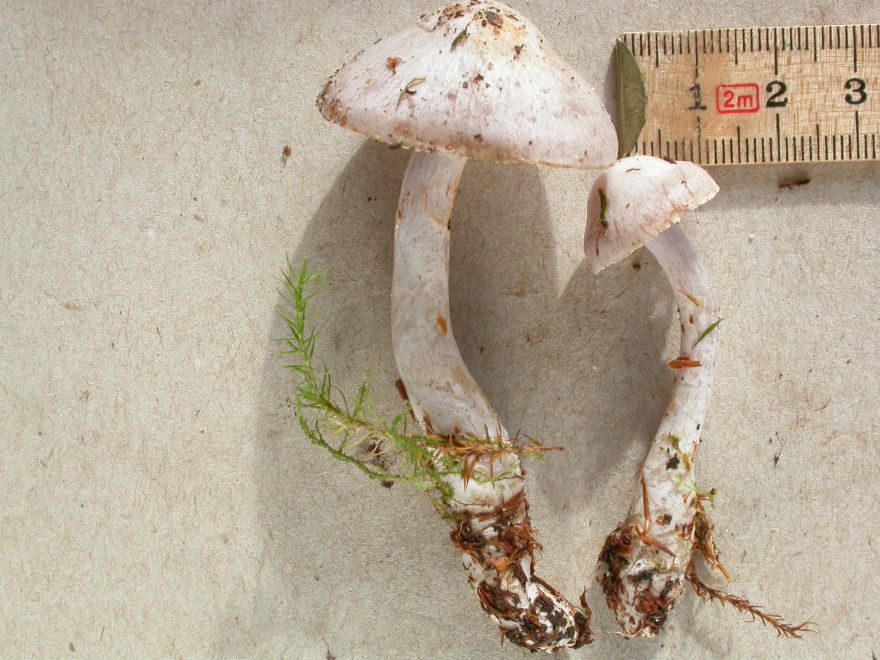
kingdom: Fungi
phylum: Basidiomycota
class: Agaricomycetes
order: Agaricales
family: Cortinariaceae
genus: Cortinarius
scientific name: Cortinarius alboviolaceus
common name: lysviolet slørhat
